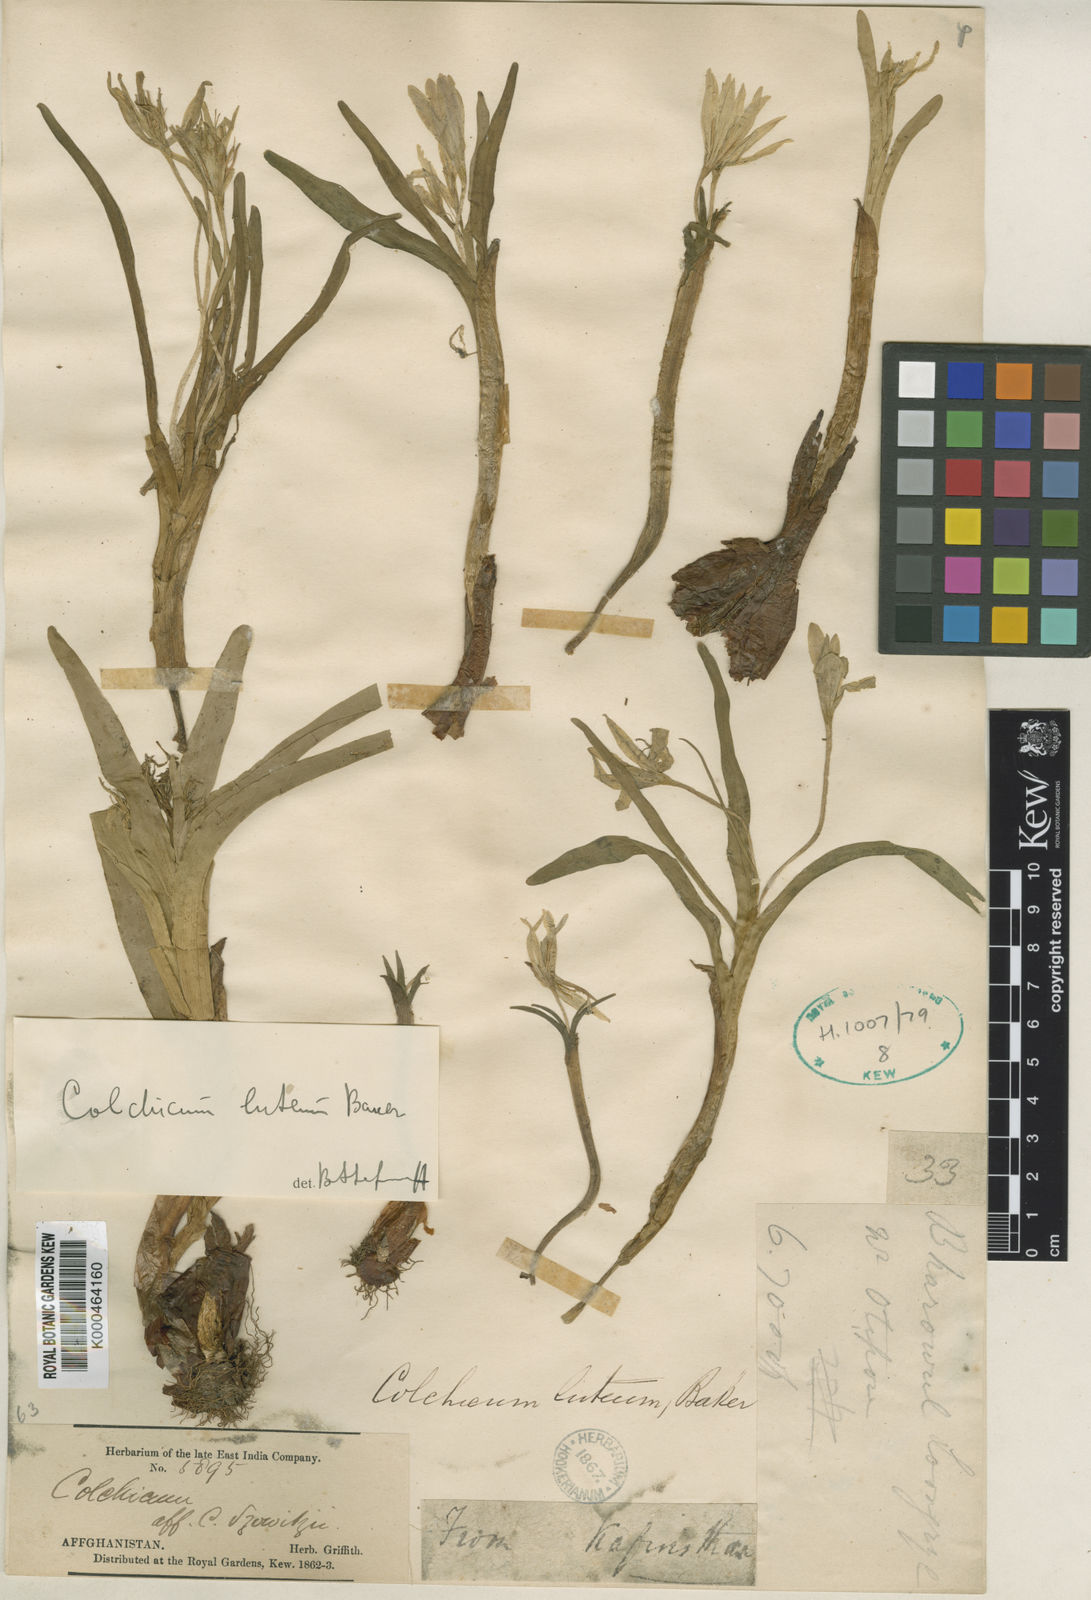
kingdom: Plantae
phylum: Tracheophyta
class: Liliopsida
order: Liliales
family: Colchicaceae
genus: Colchicum
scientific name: Colchicum luteum
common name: Indian colchicum
